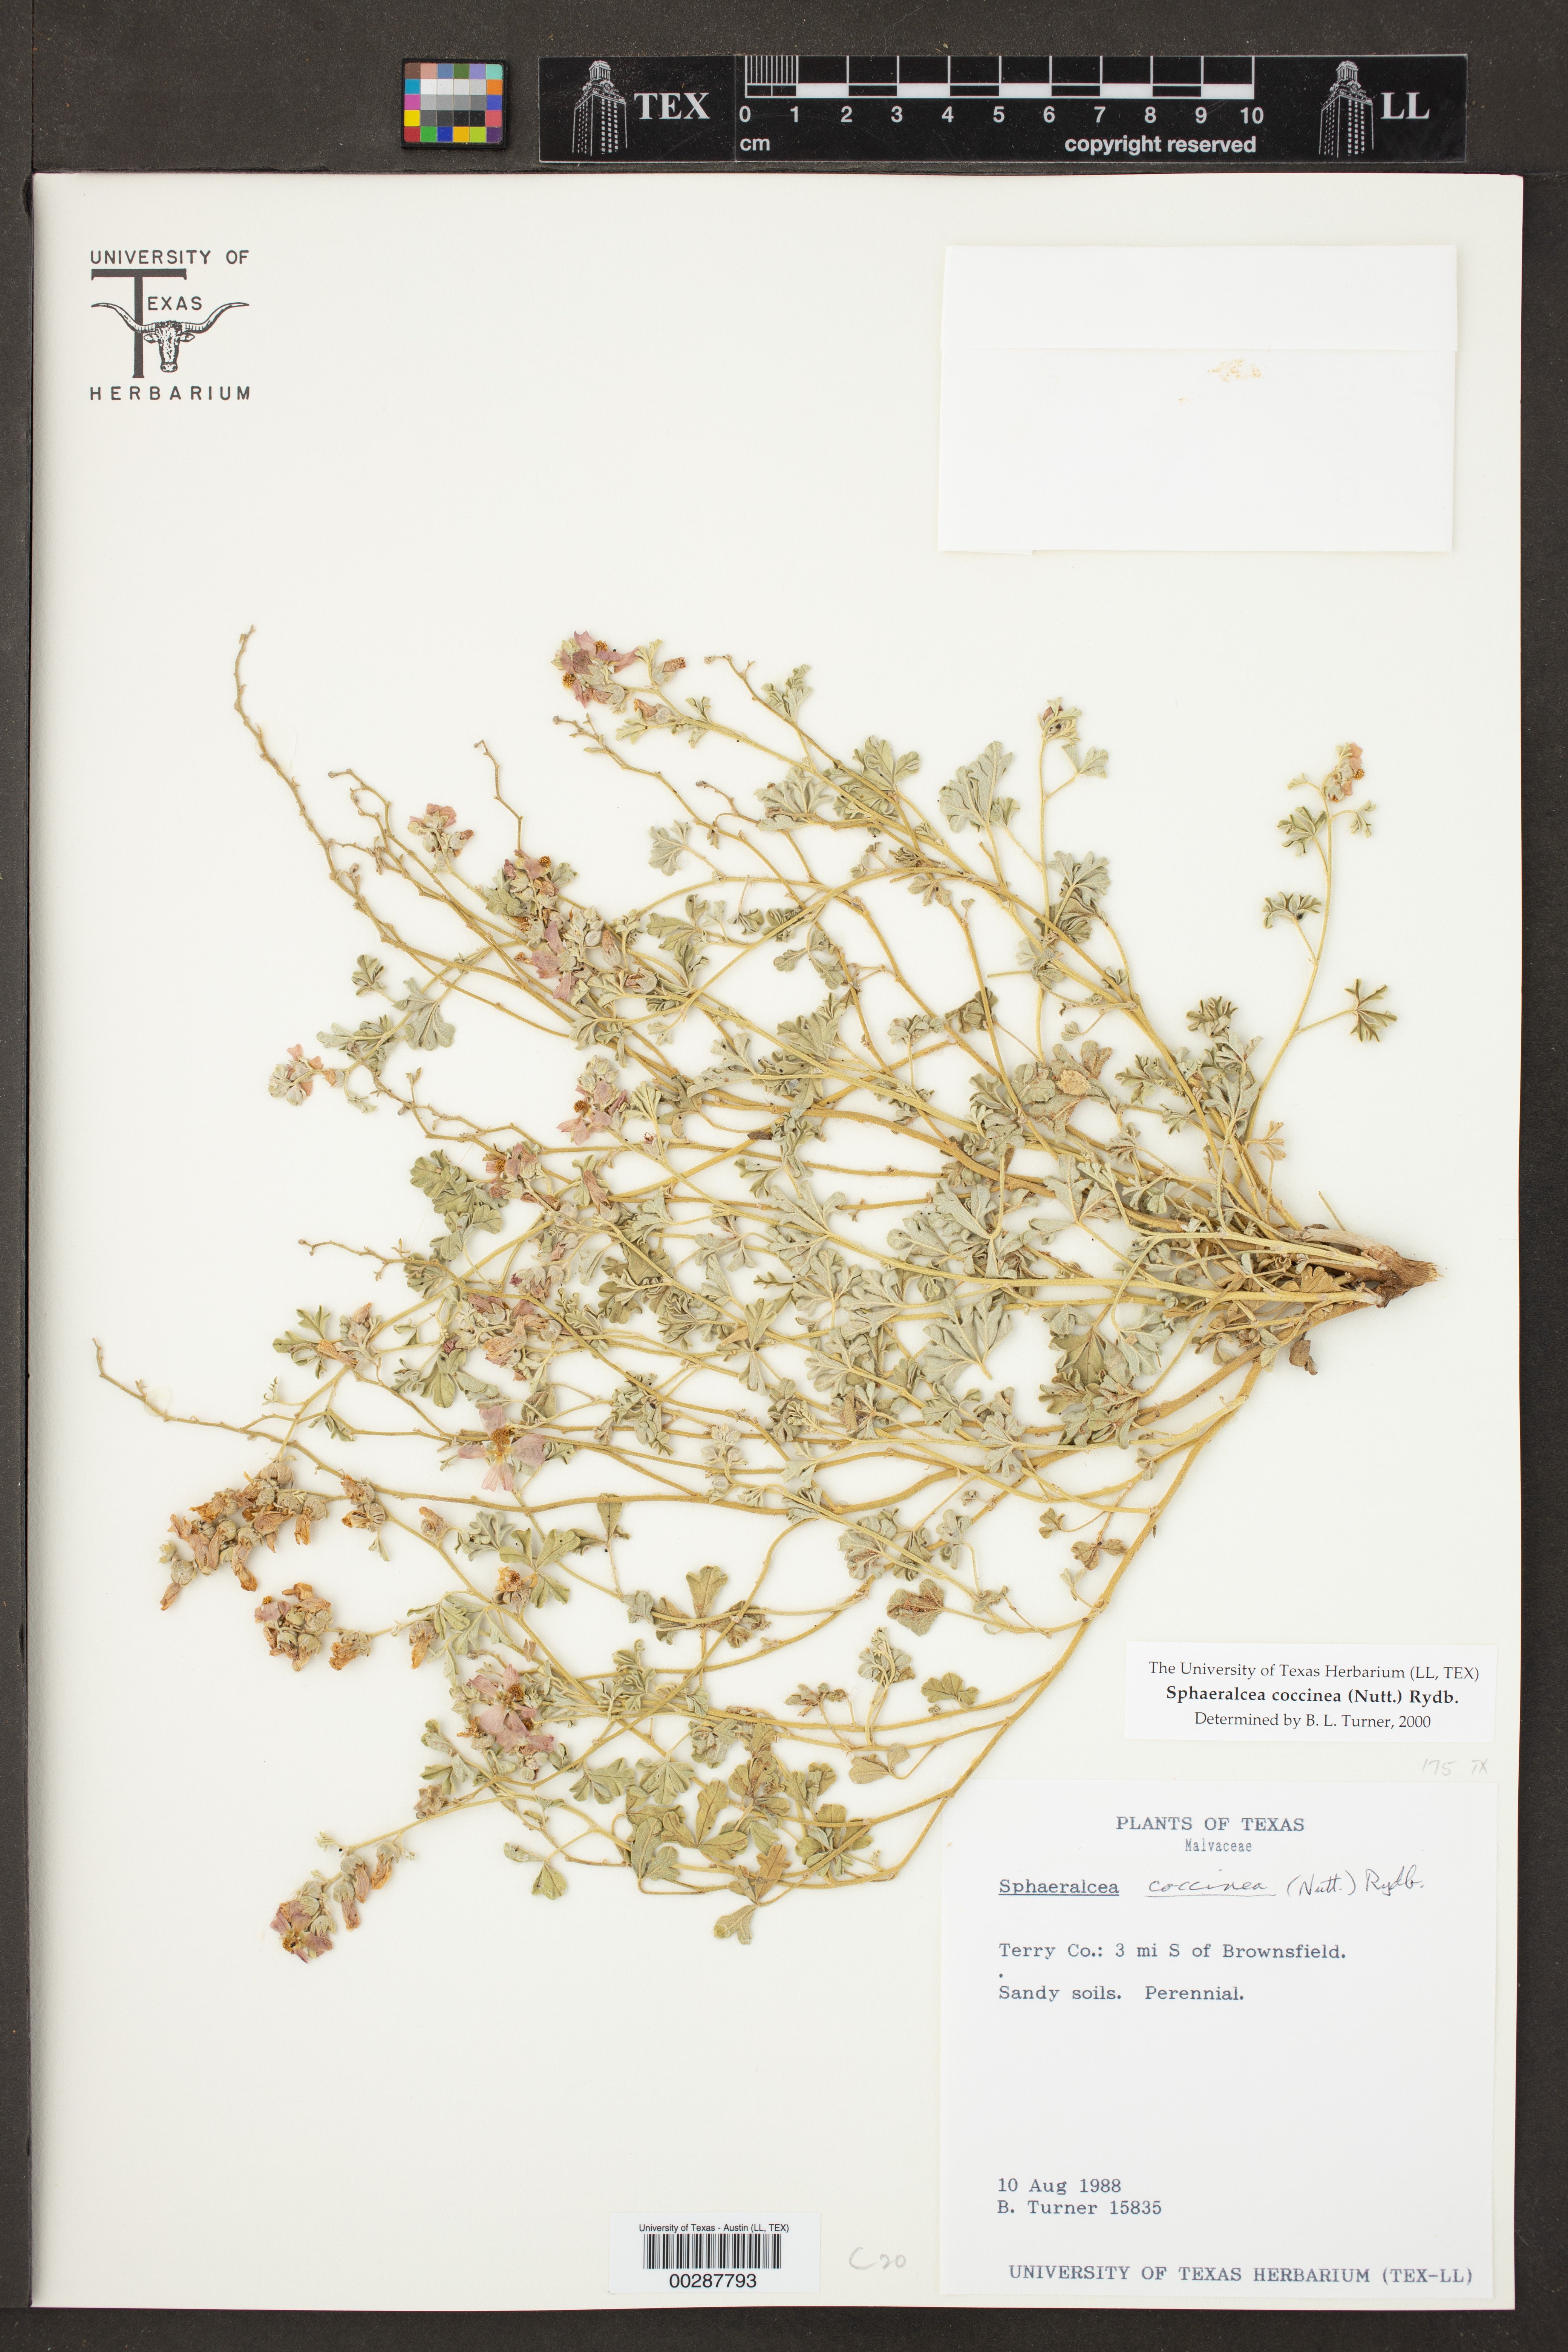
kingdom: Plantae
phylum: Tracheophyta
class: Magnoliopsida
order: Malvales
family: Malvaceae
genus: Sphaeralcea
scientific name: Sphaeralcea coccinea
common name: Moss-rose
